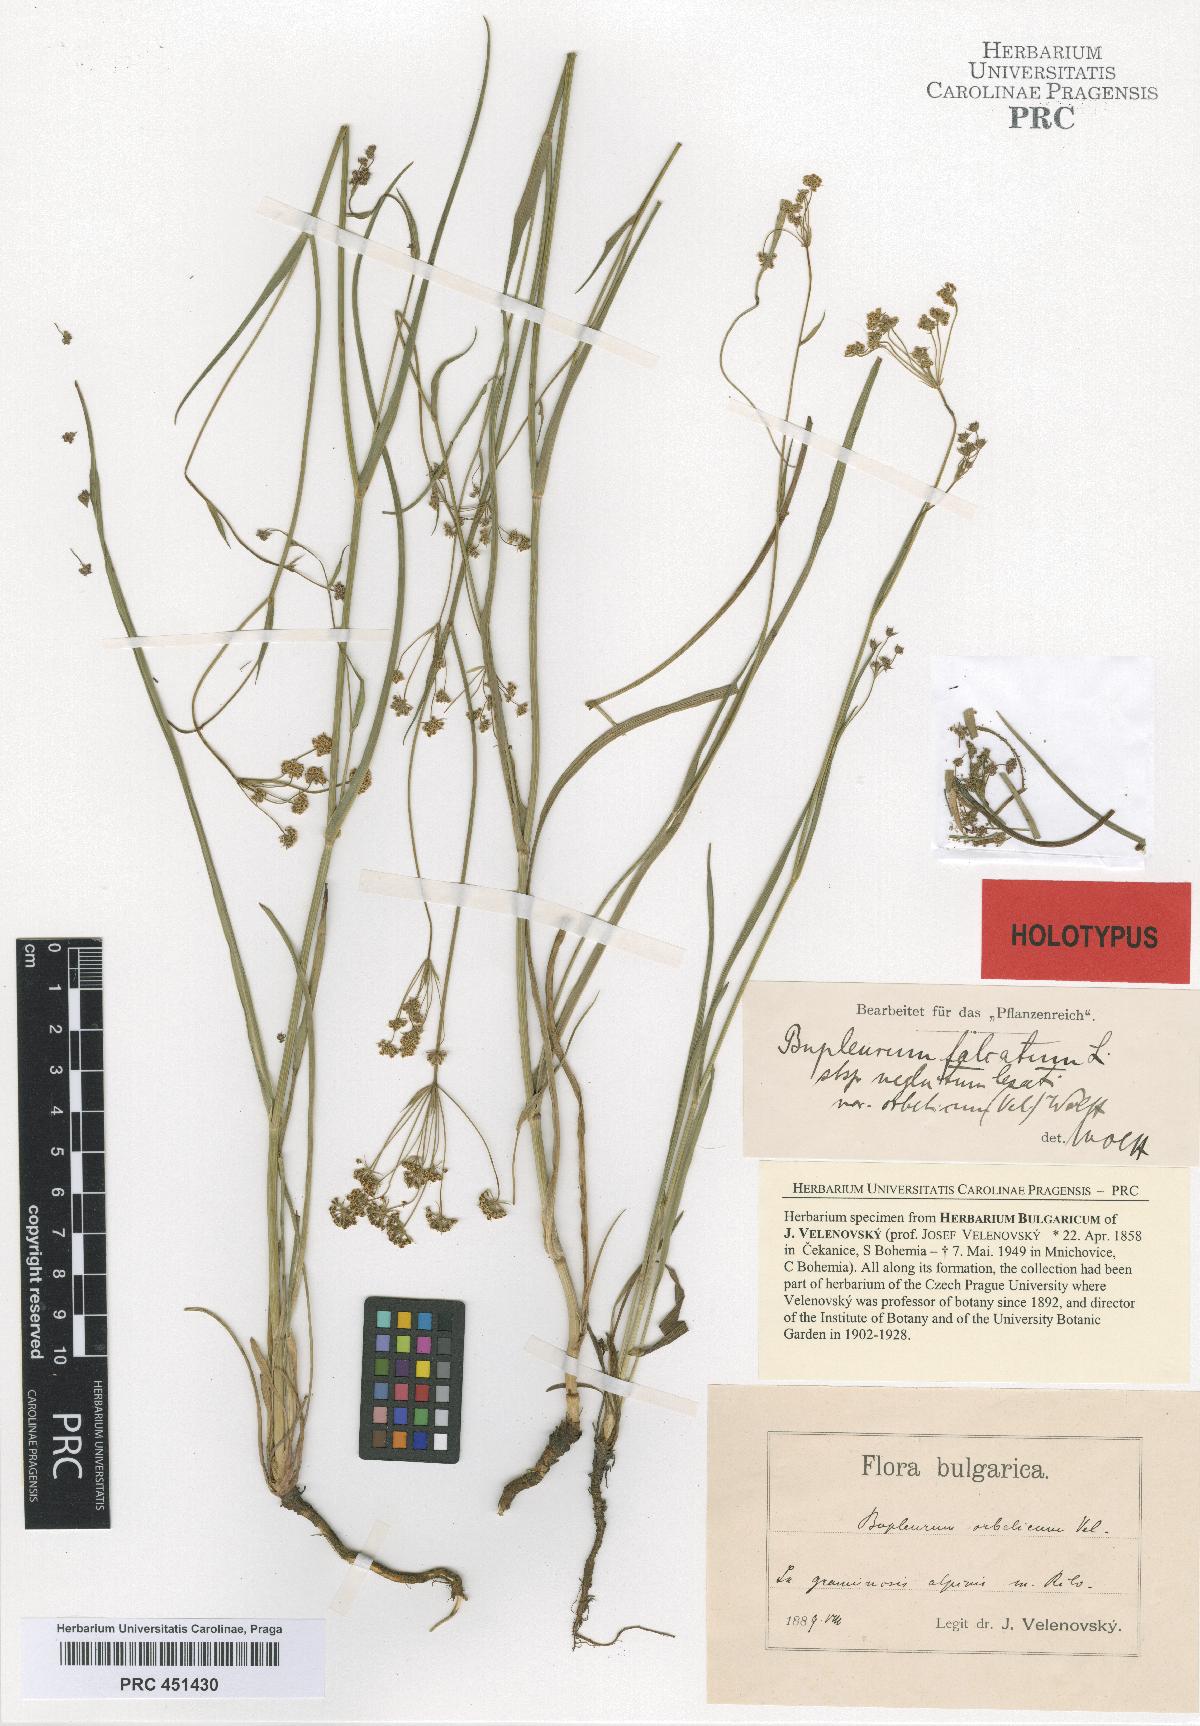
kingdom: Plantae
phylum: Tracheophyta
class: Magnoliopsida
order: Apiales
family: Apiaceae
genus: Bupleurum
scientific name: Bupleurum exaltatum
